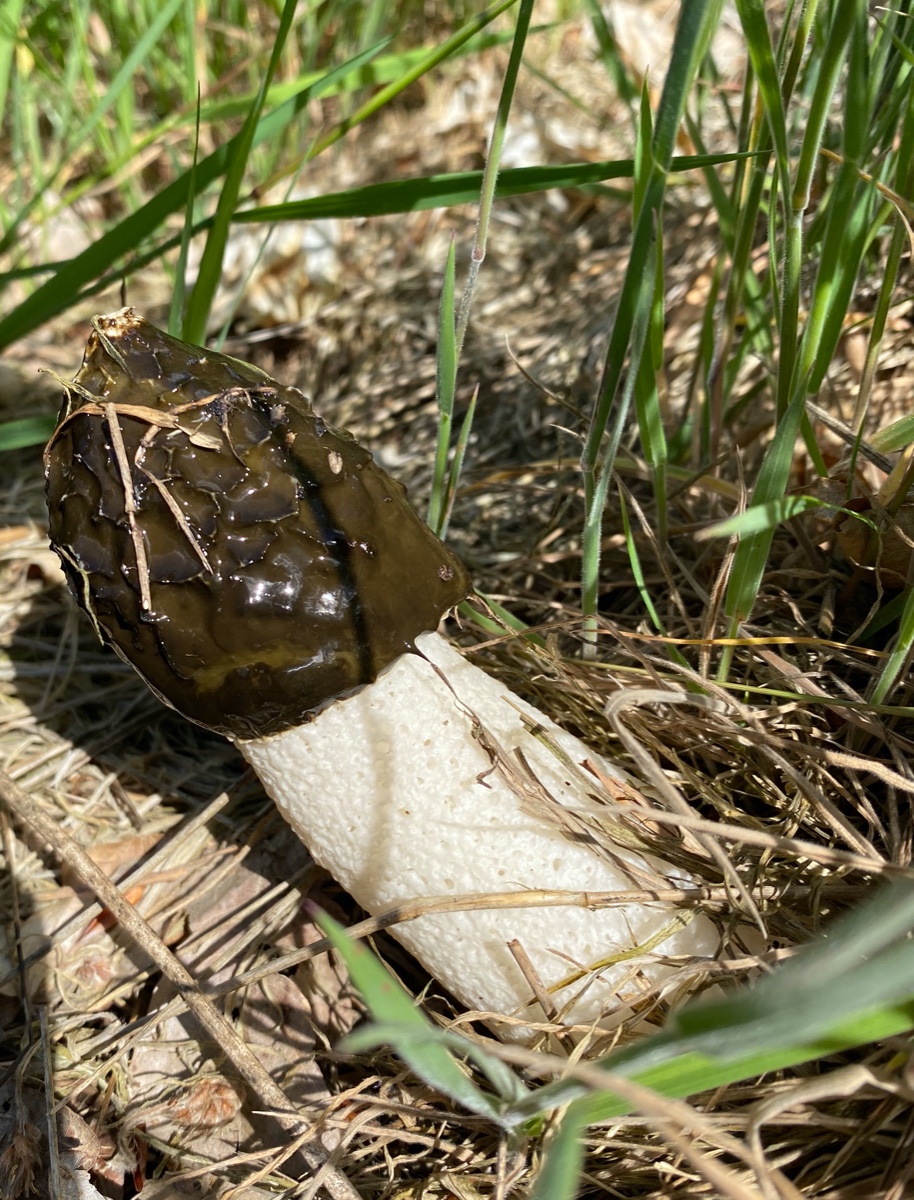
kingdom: Fungi
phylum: Basidiomycota
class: Agaricomycetes
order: Phallales
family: Phallaceae
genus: Phallus
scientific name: Phallus impudicus
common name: almindelig stinksvamp
